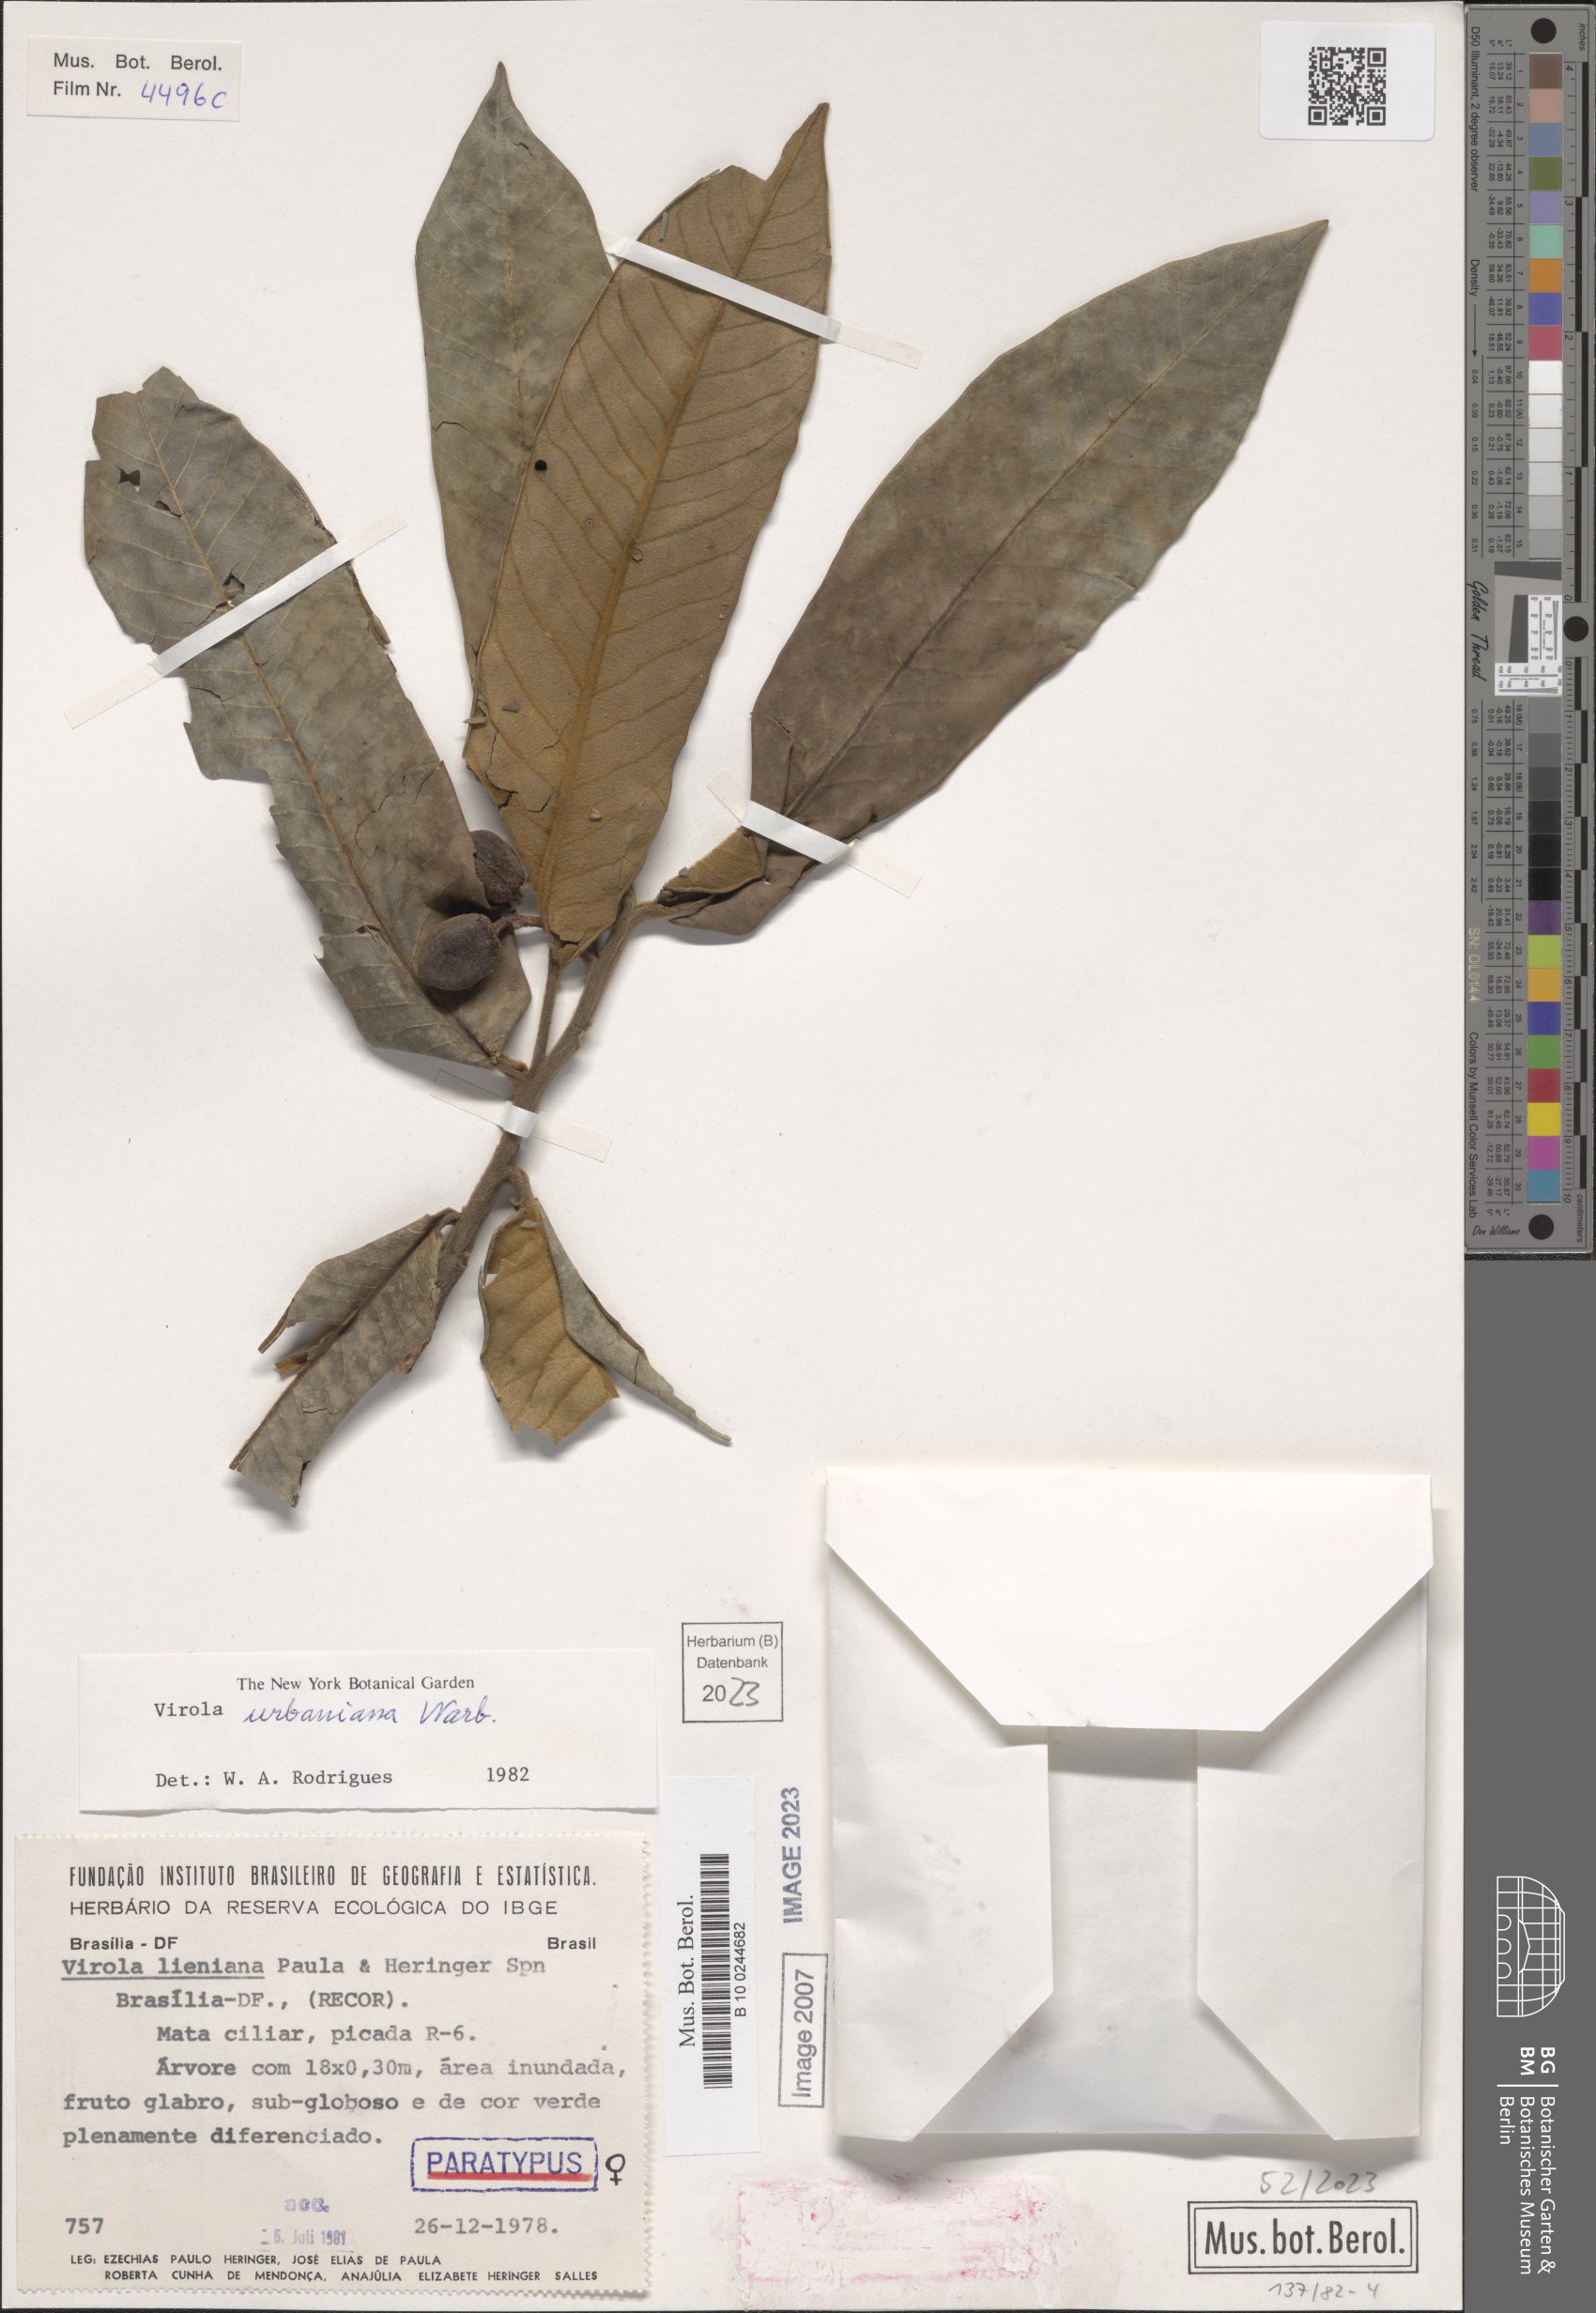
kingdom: Plantae
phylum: Tracheophyta
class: Magnoliopsida
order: Magnoliales
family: Myristicaceae
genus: Virola
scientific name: Virola urbaniana
